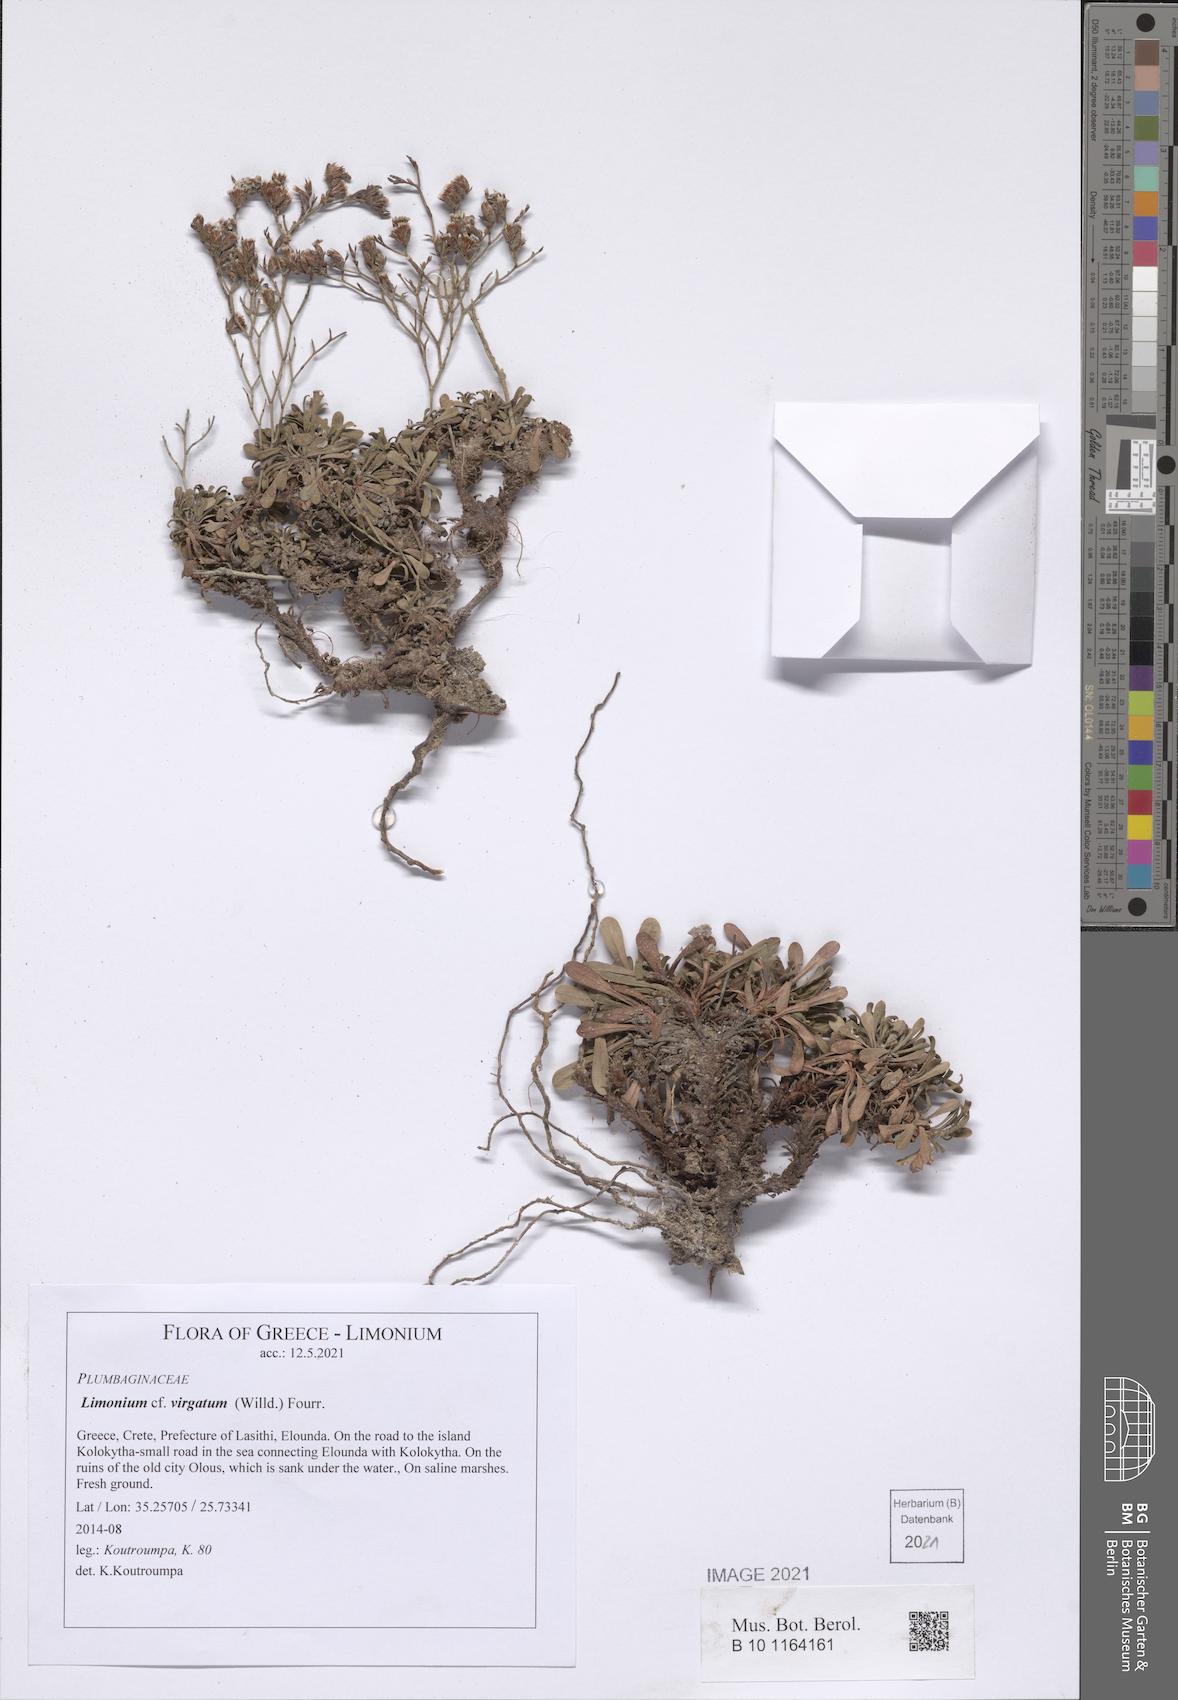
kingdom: Plantae
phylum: Tracheophyta
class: Magnoliopsida
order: Caryophyllales
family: Plumbaginaceae
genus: Limonium
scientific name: Limonium virgatum
